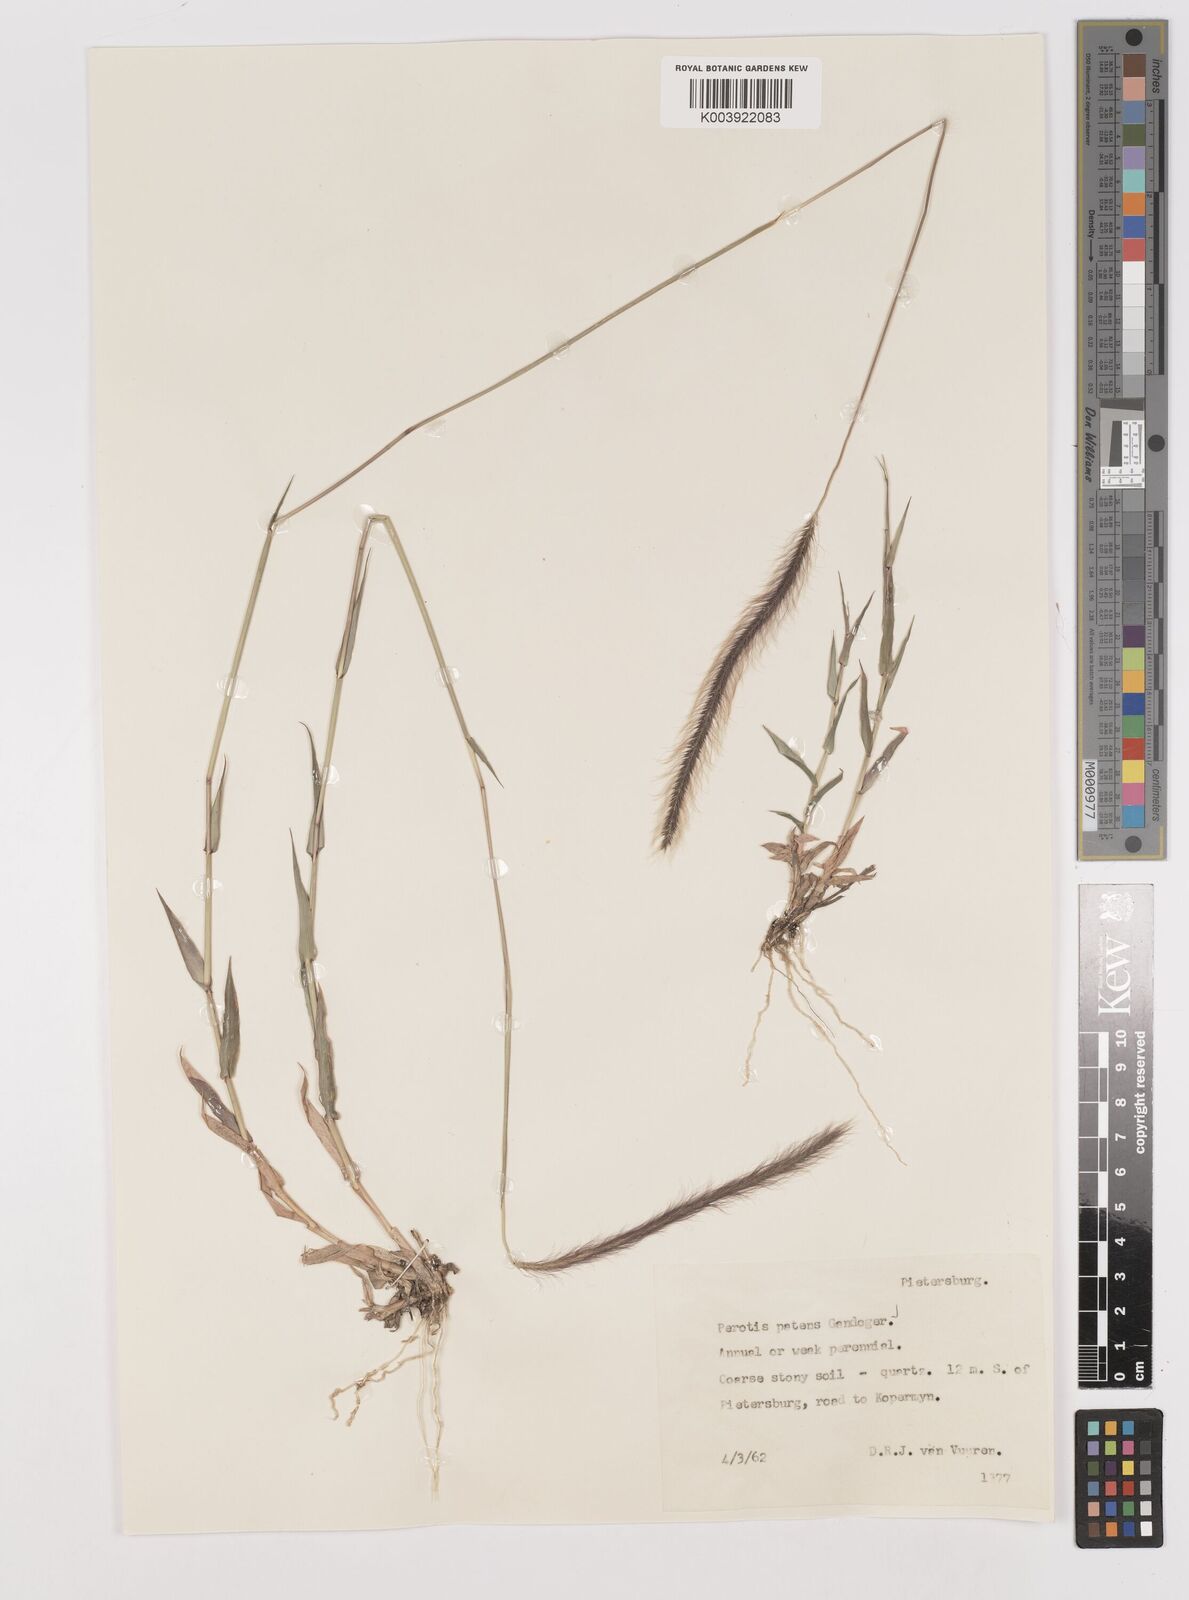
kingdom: Plantae
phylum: Tracheophyta
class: Liliopsida
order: Poales
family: Poaceae
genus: Perotis
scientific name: Perotis patens
